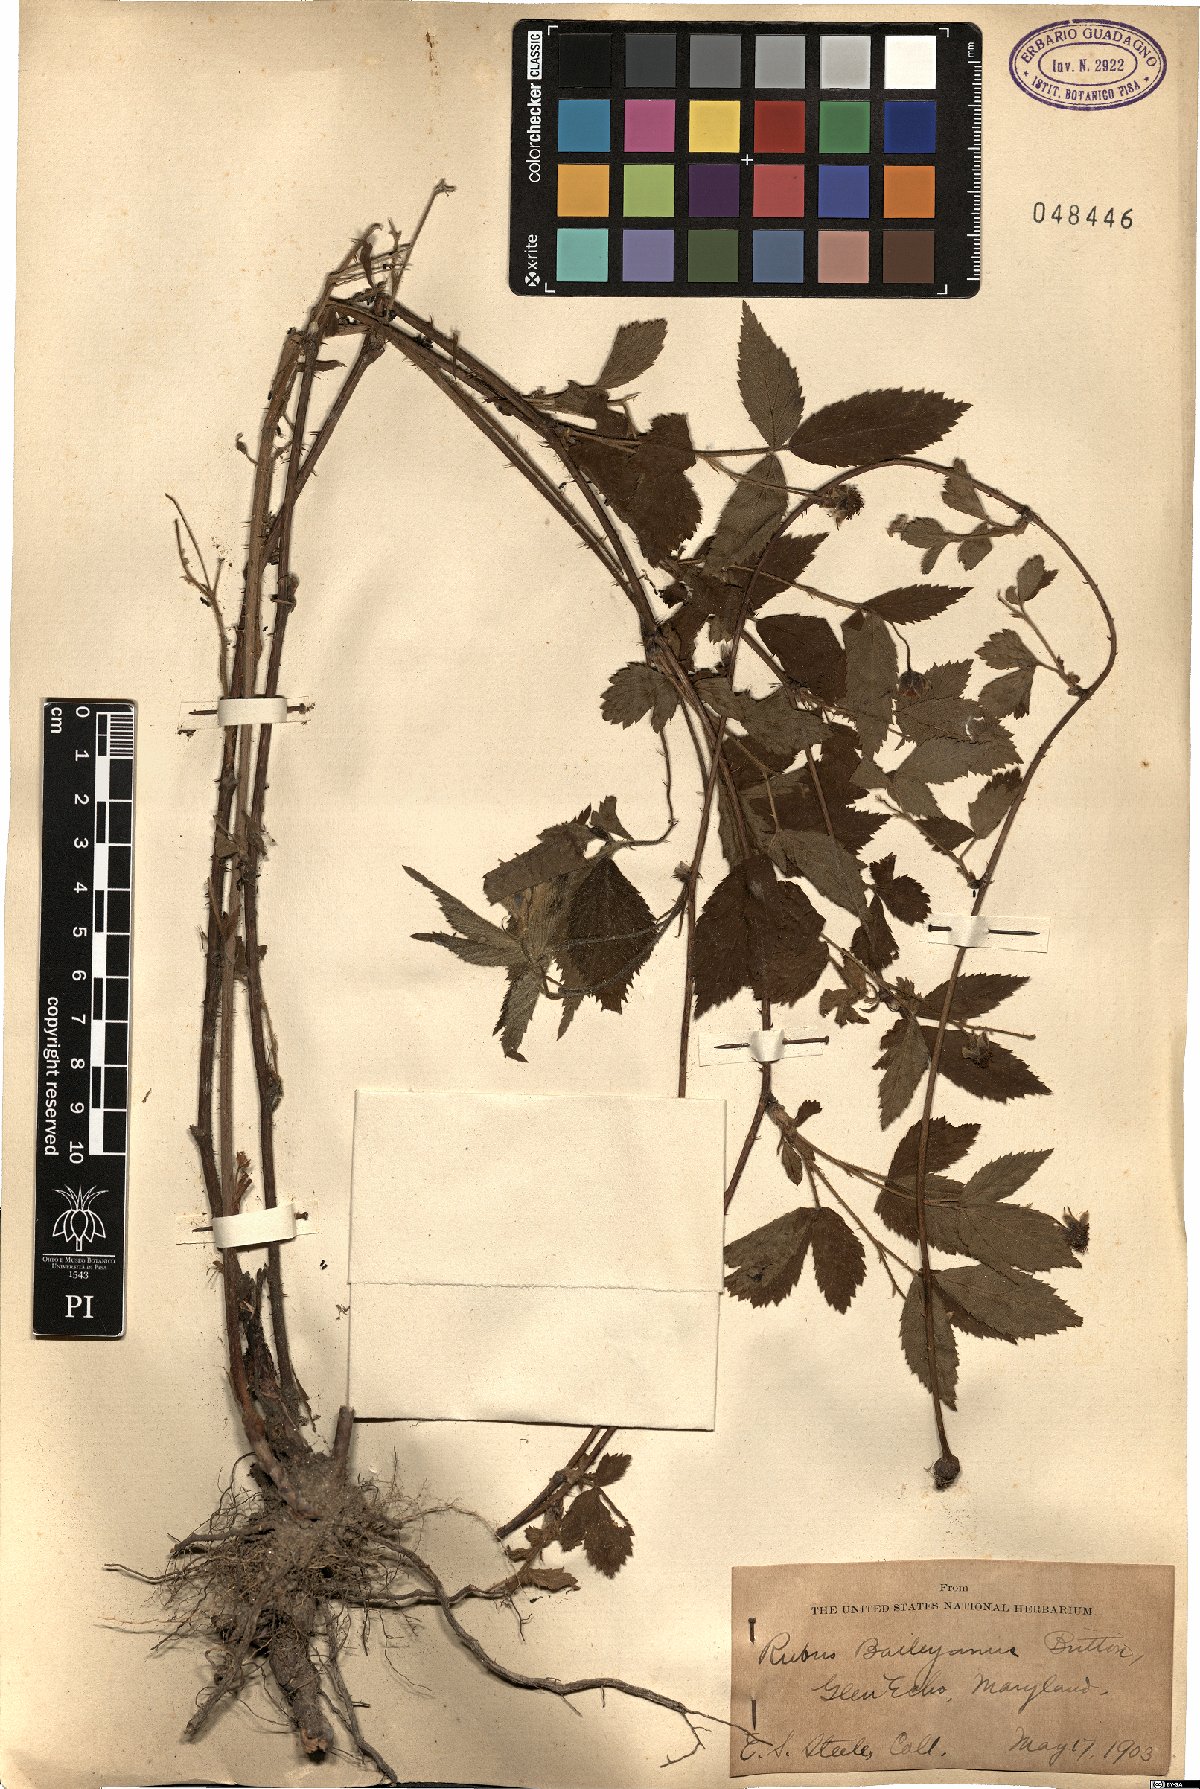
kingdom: Plantae
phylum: Tracheophyta
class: Magnoliopsida
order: Rosales
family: Rosaceae
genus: Rubus
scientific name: Rubus baileyanus
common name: Bailey's dewberry
